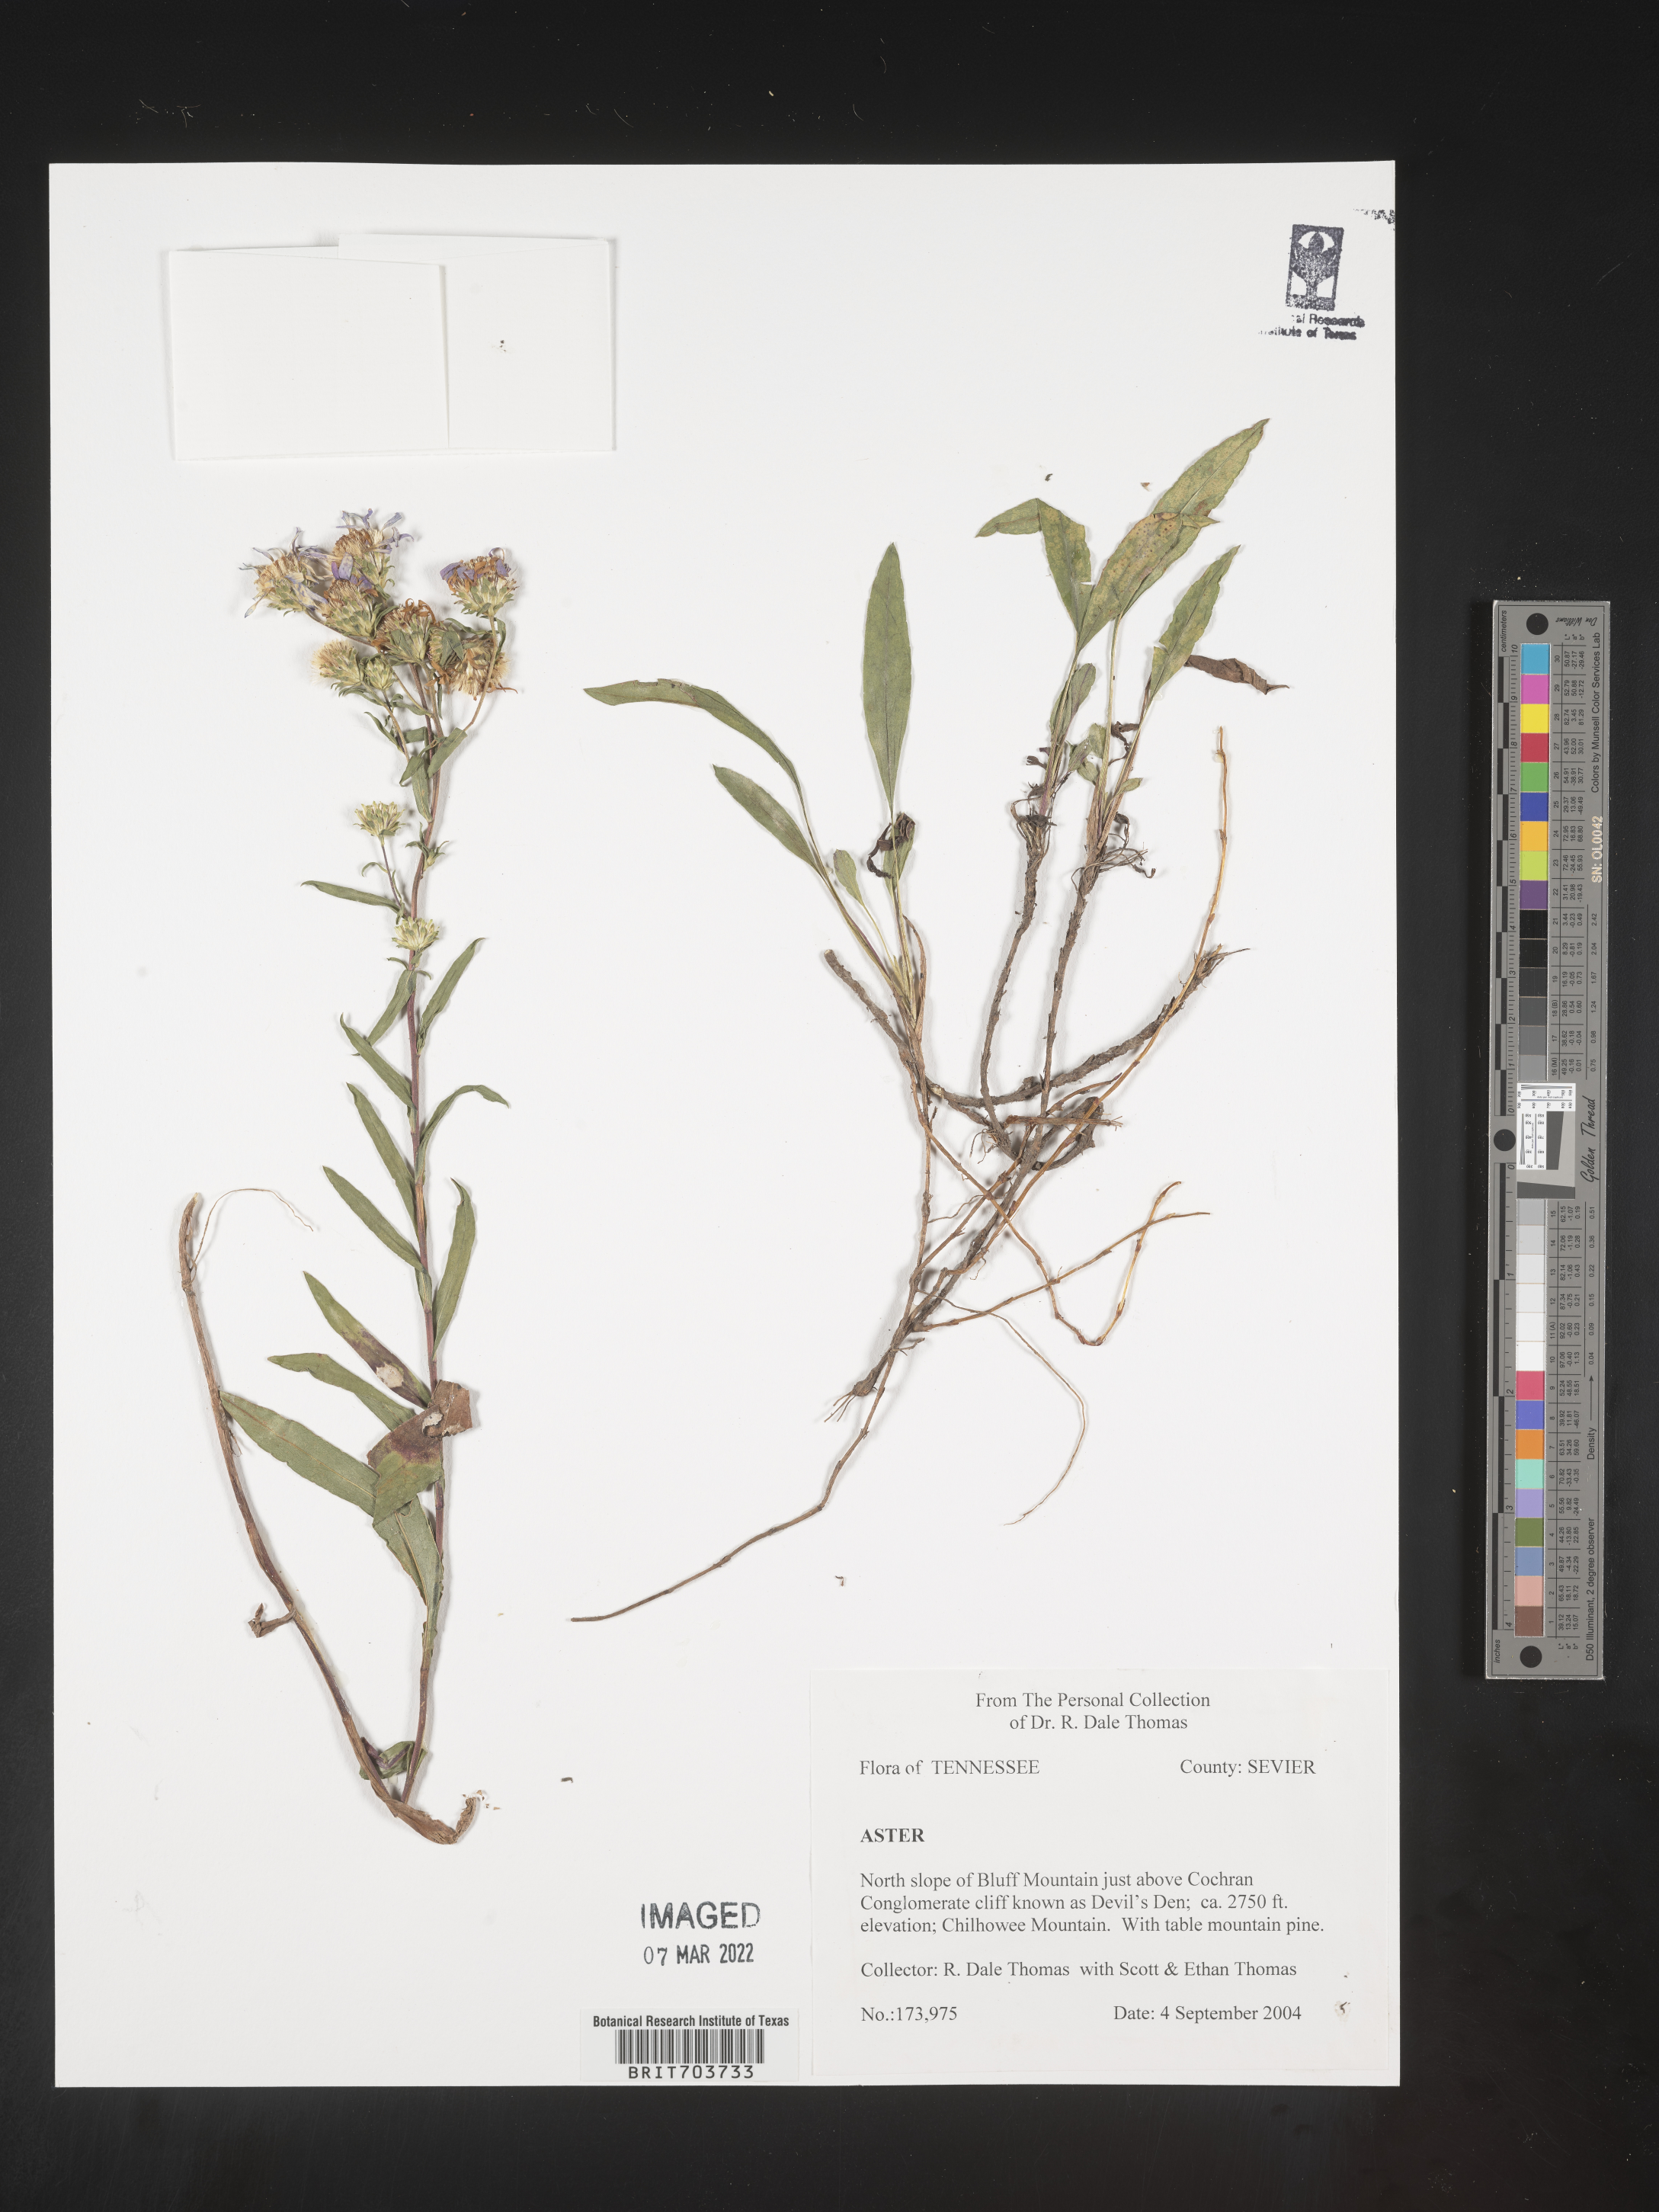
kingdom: Plantae
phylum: Tracheophyta
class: Magnoliopsida
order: Asterales
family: Asteraceae
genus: Eurybia
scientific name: Eurybia
